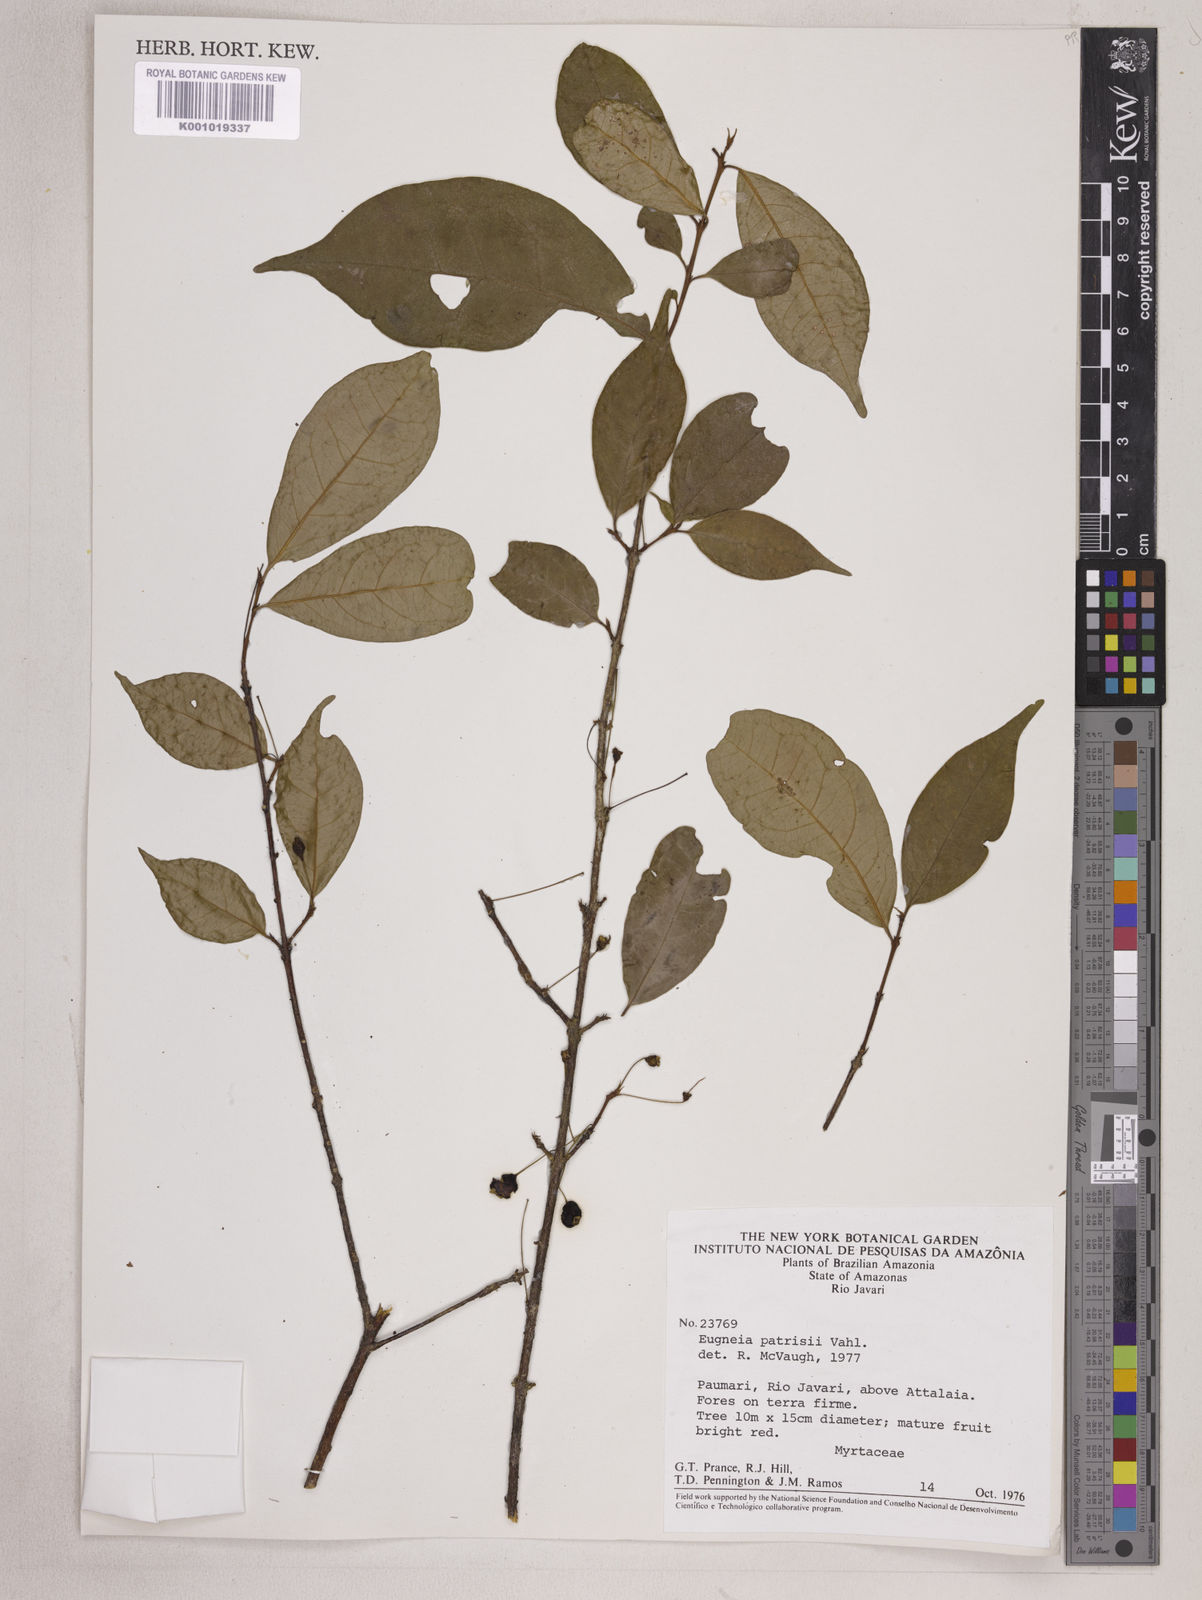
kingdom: Plantae
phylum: Tracheophyta
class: Magnoliopsida
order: Myrtales
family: Myrtaceae
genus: Eugenia
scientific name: Eugenia patrisii
